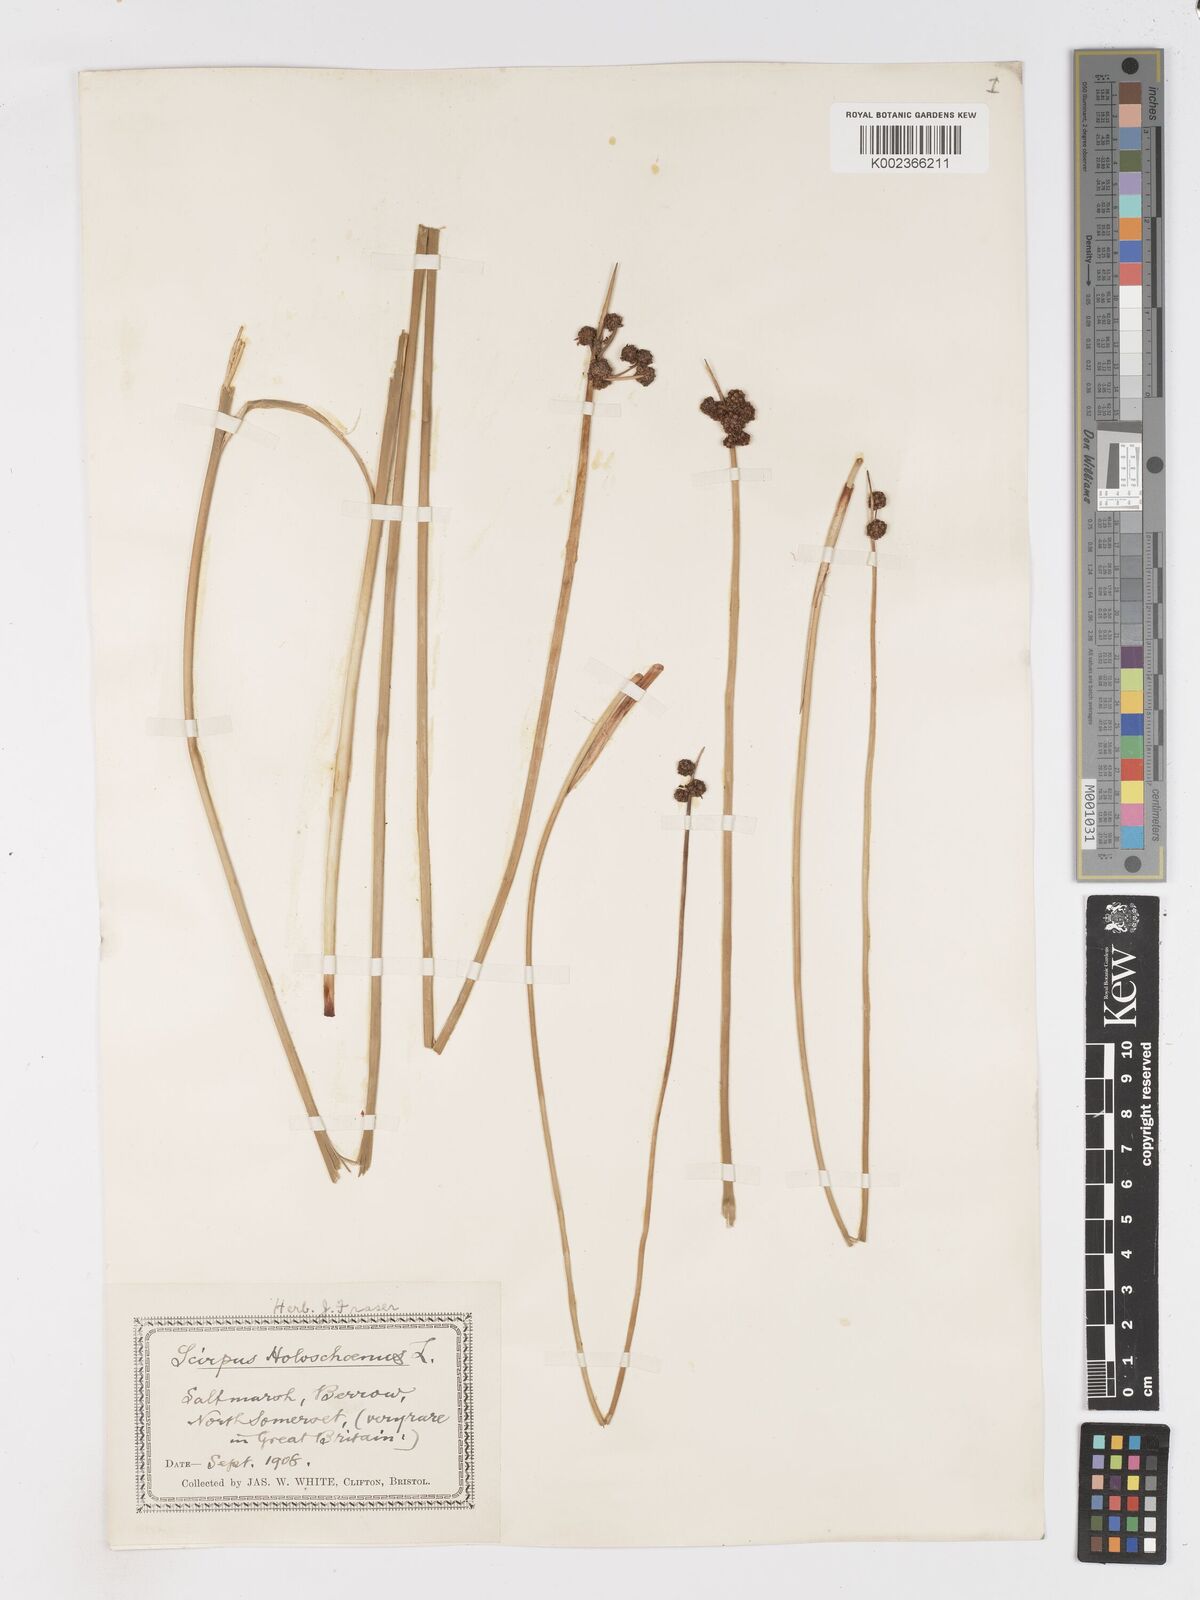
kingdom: Plantae
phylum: Tracheophyta
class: Liliopsida
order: Poales
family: Cyperaceae
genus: Scirpoides
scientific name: Scirpoides holoschoenus
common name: Round-headed club-rush
